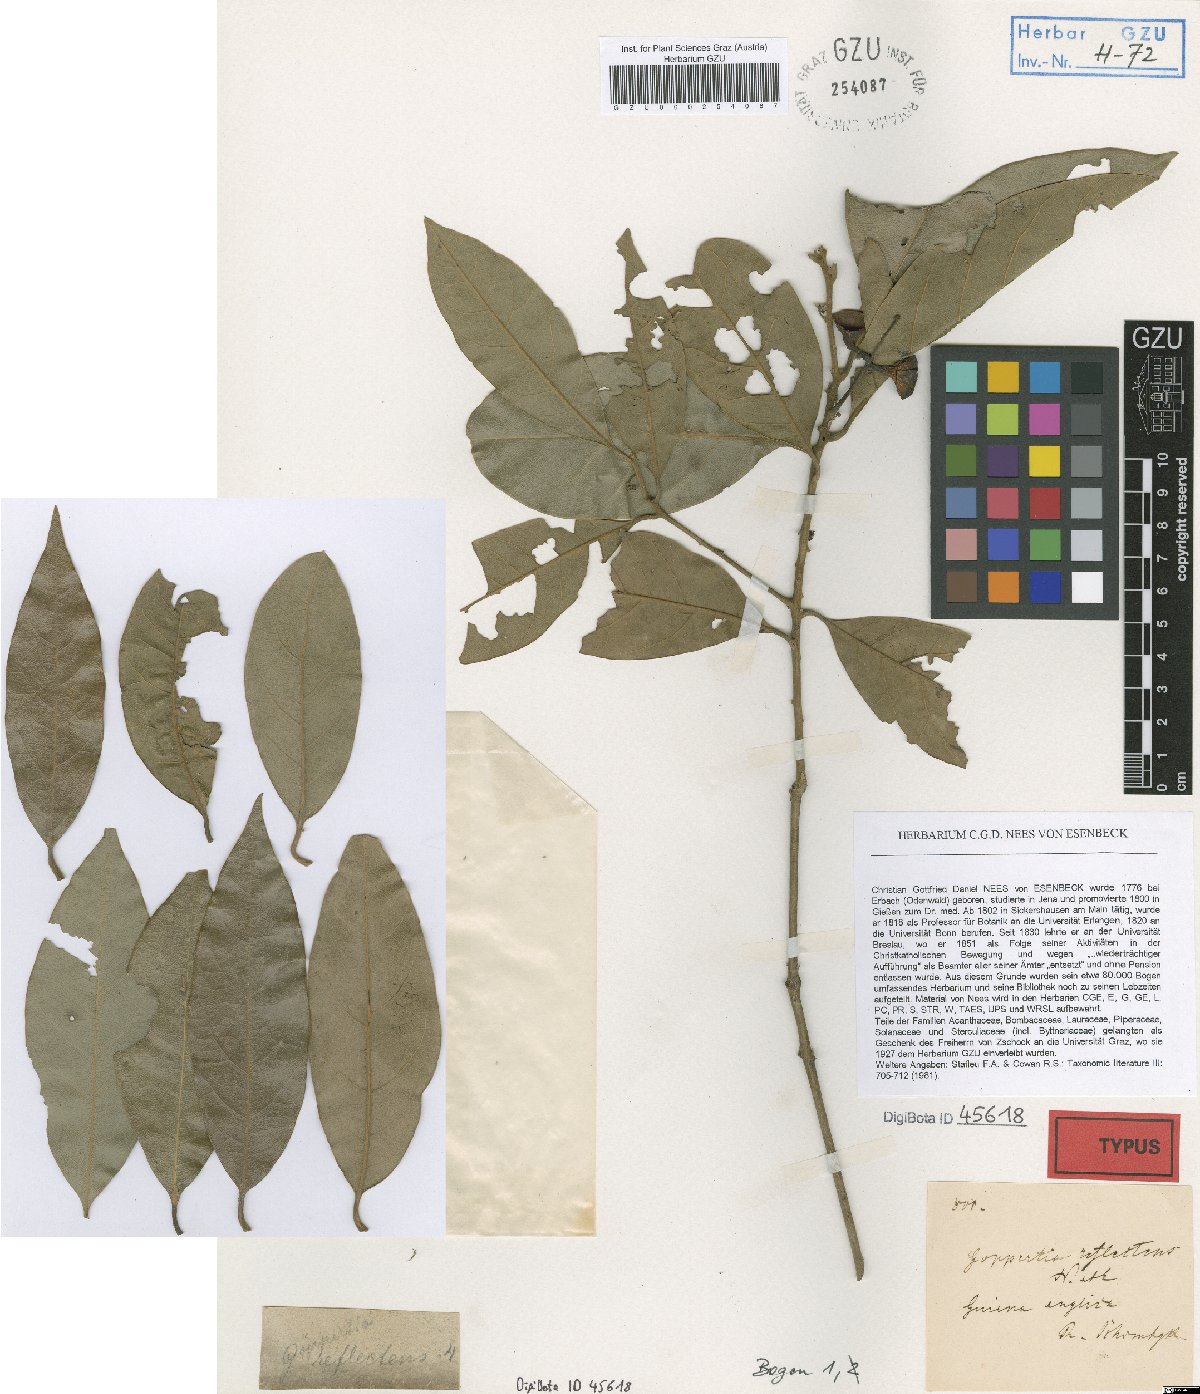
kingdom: Plantae
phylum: Tracheophyta
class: Magnoliopsida
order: Laurales
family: Lauraceae
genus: Endlicheria
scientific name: Endlicheria reflectens
